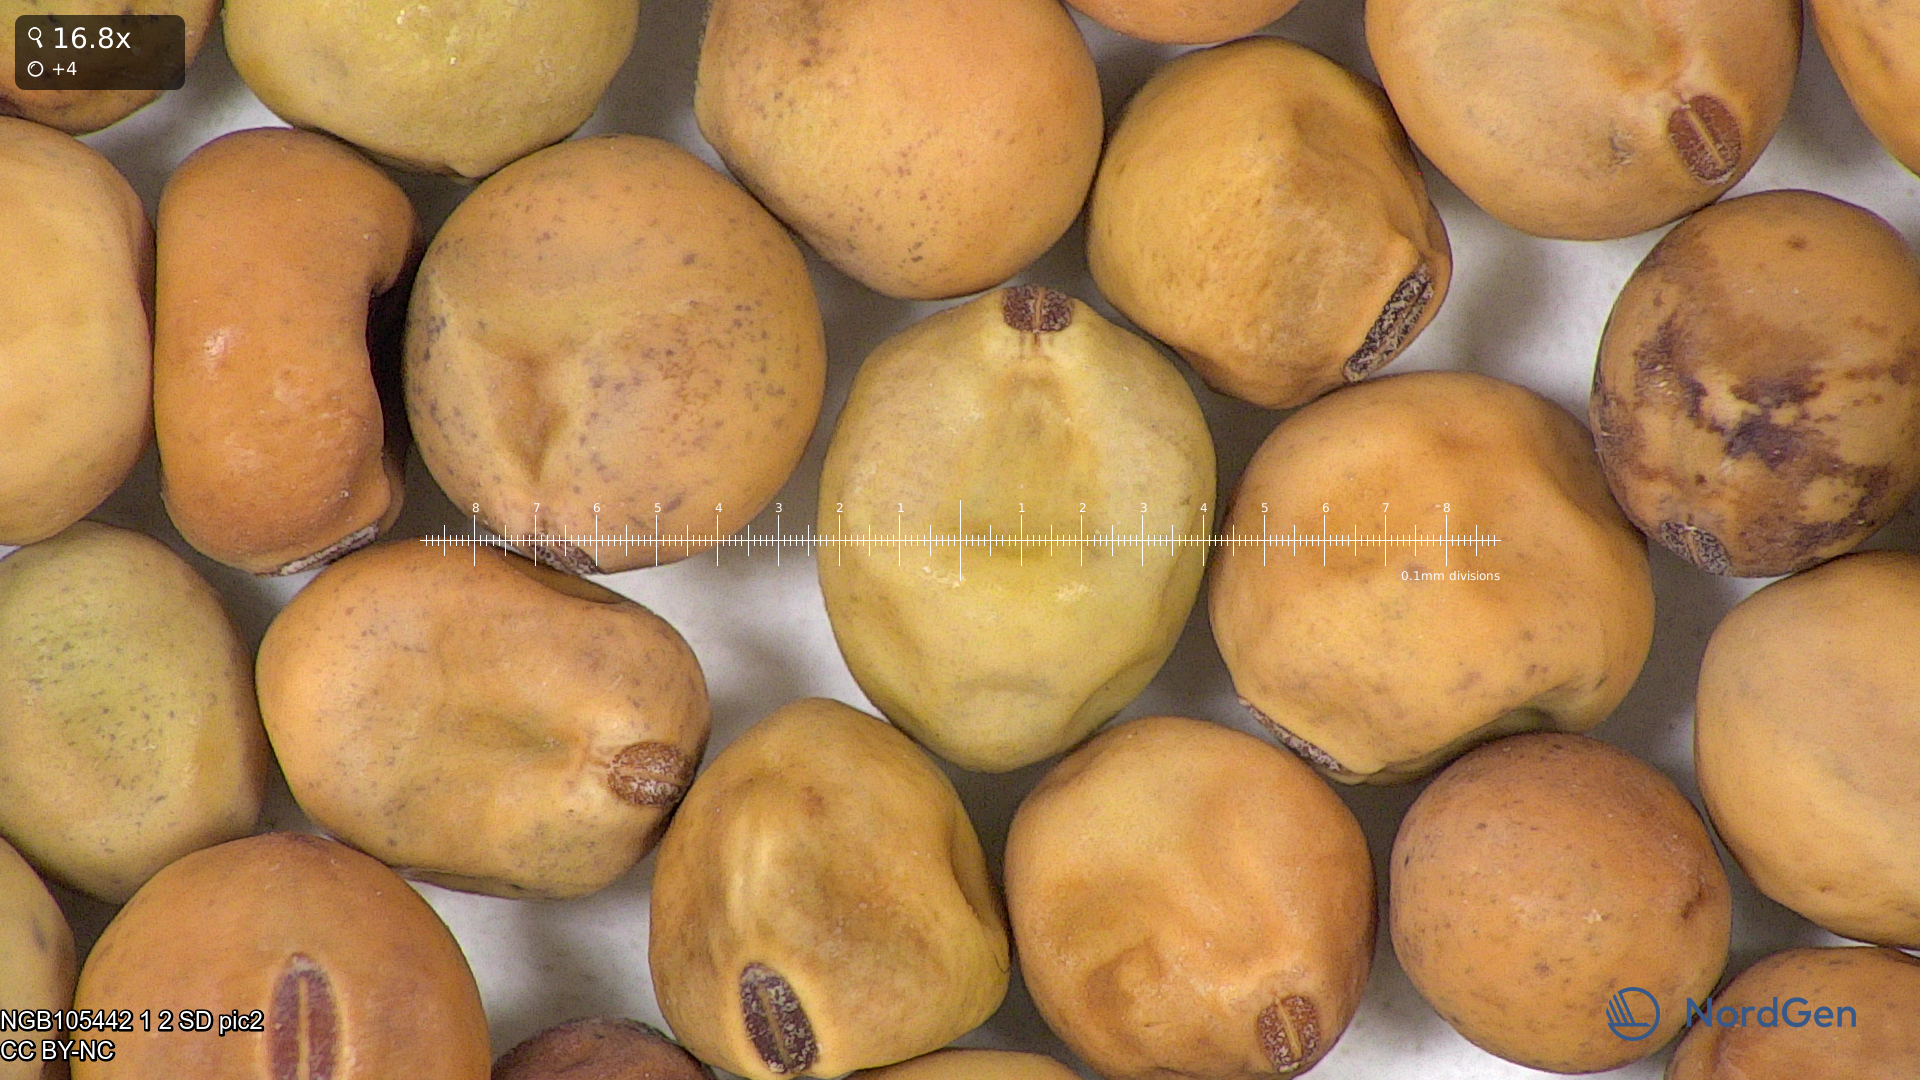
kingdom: Plantae
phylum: Tracheophyta
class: Magnoliopsida
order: Fabales
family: Fabaceae
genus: Lathyrus
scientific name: Lathyrus oleraceus
